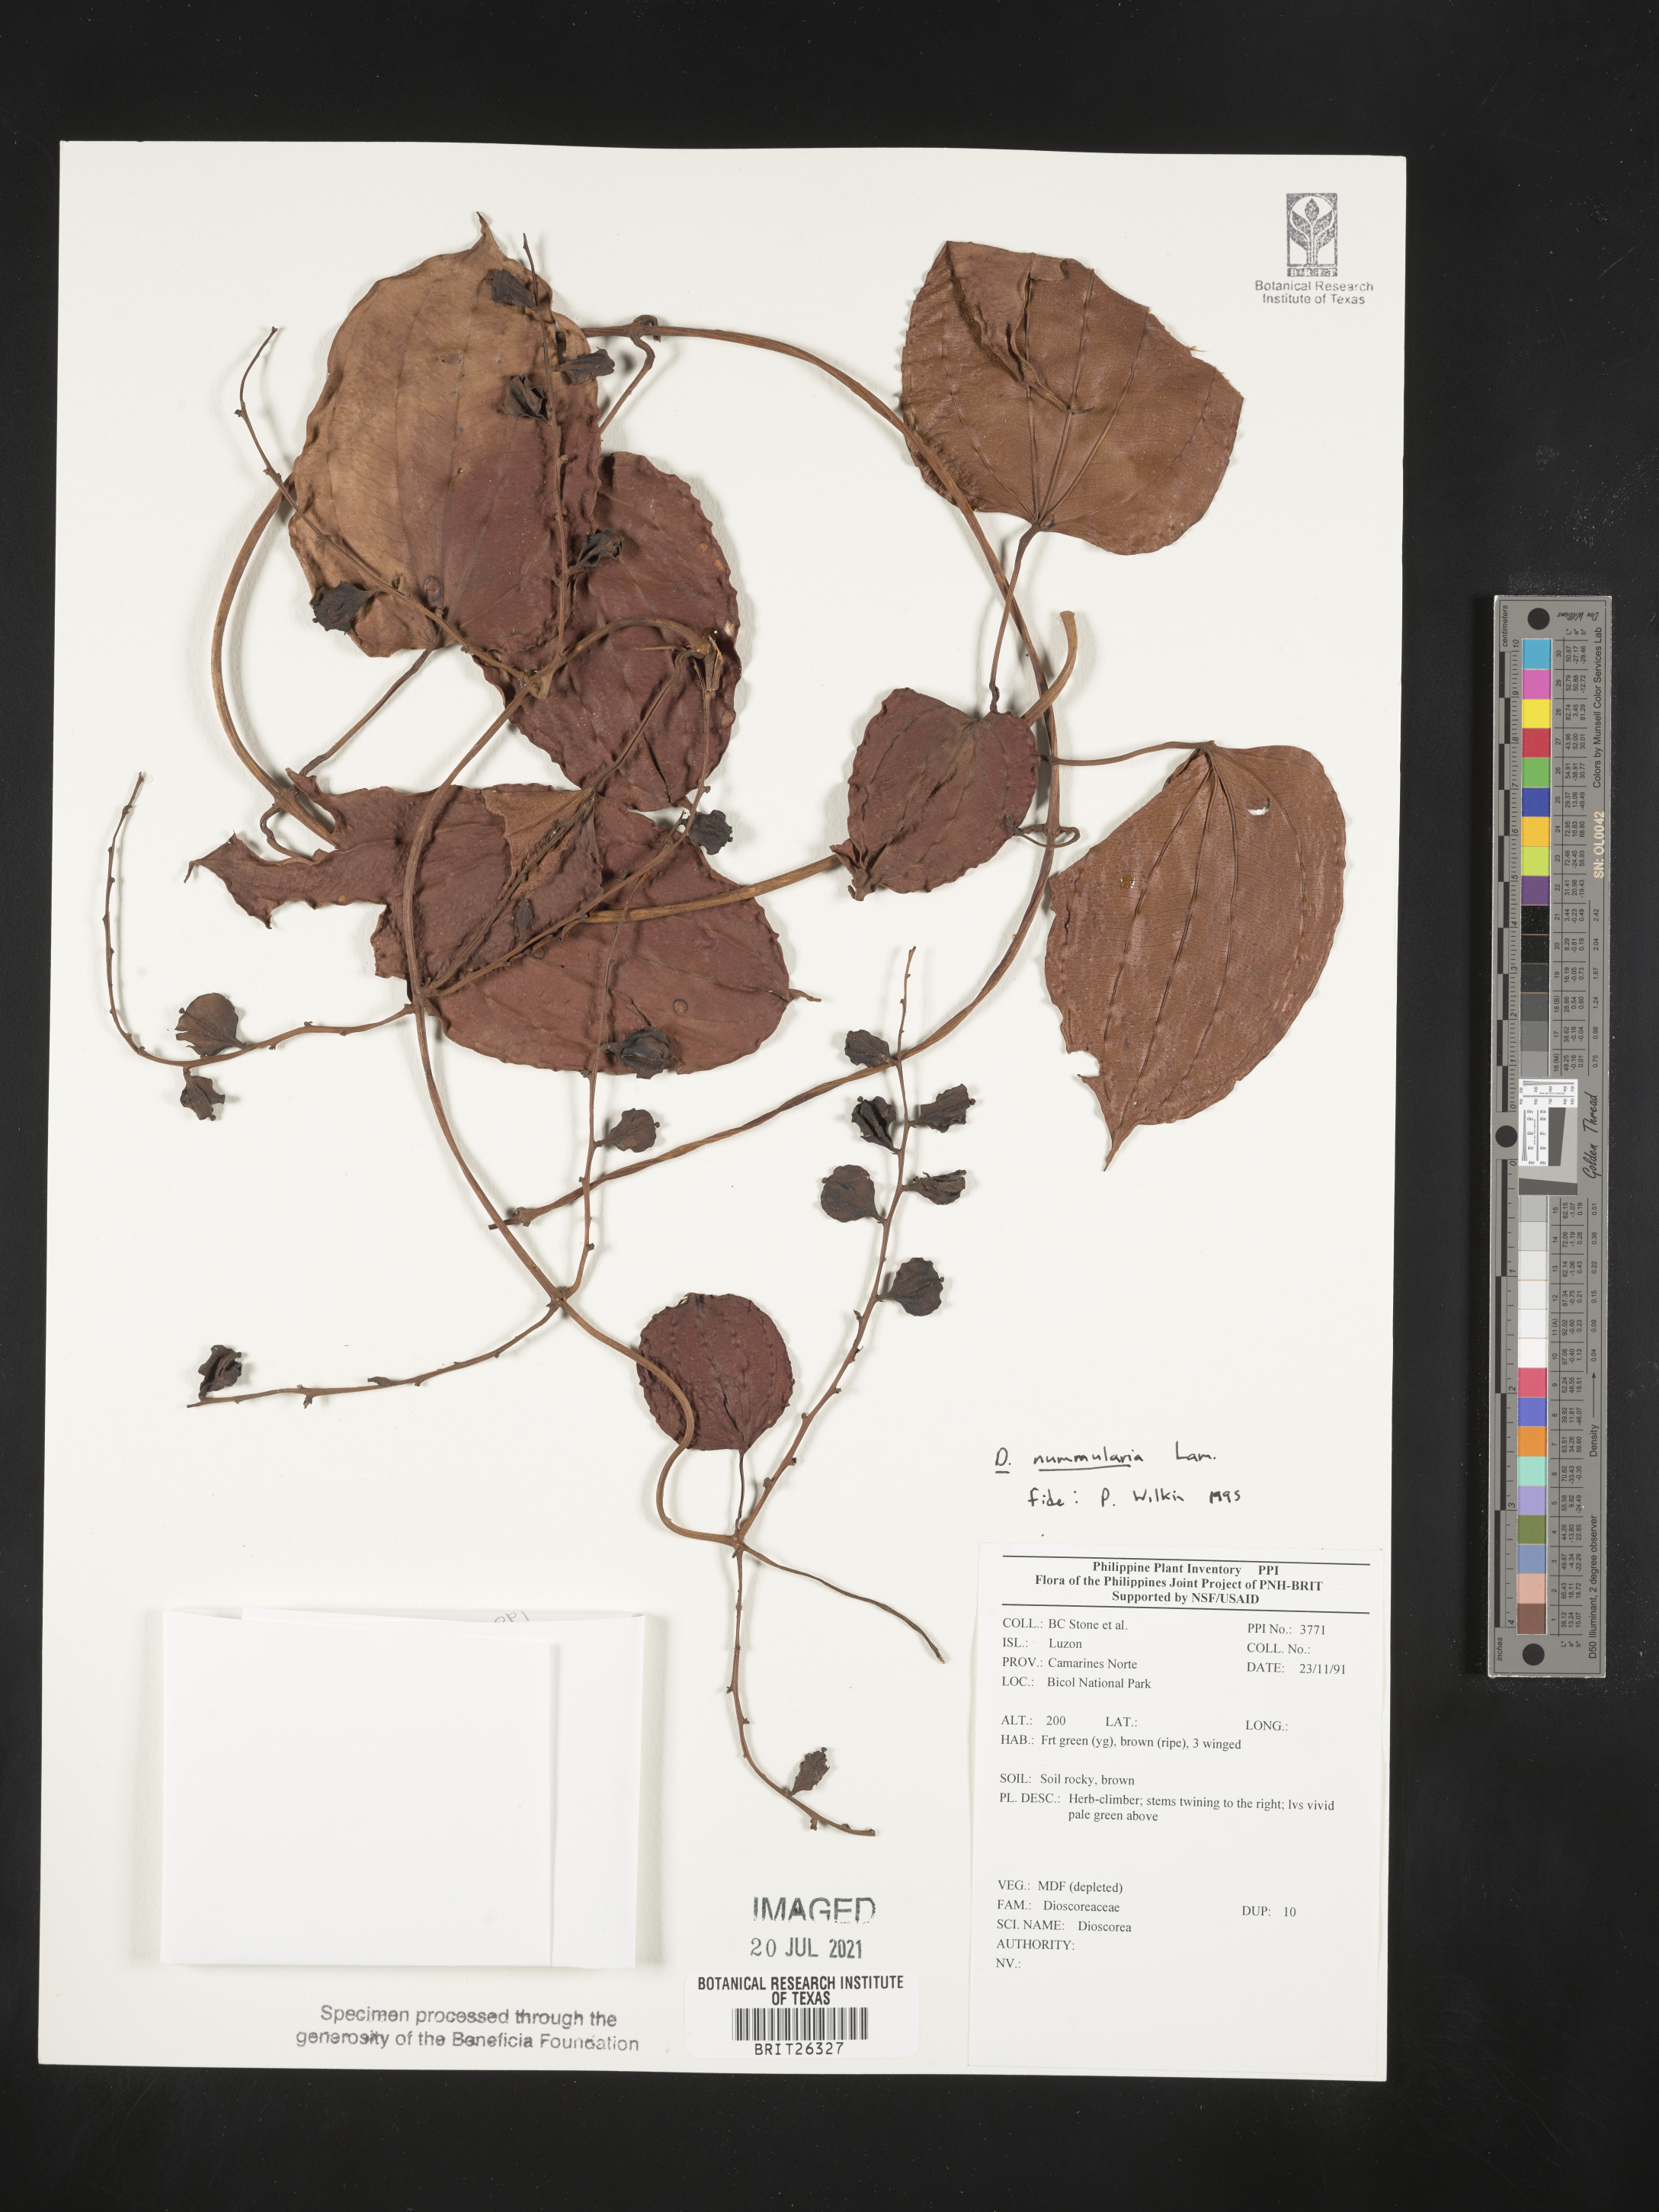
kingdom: Plantae
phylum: Tracheophyta
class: Liliopsida
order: Dioscoreales
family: Dioscoreaceae
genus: Dioscorea
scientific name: Dioscorea
